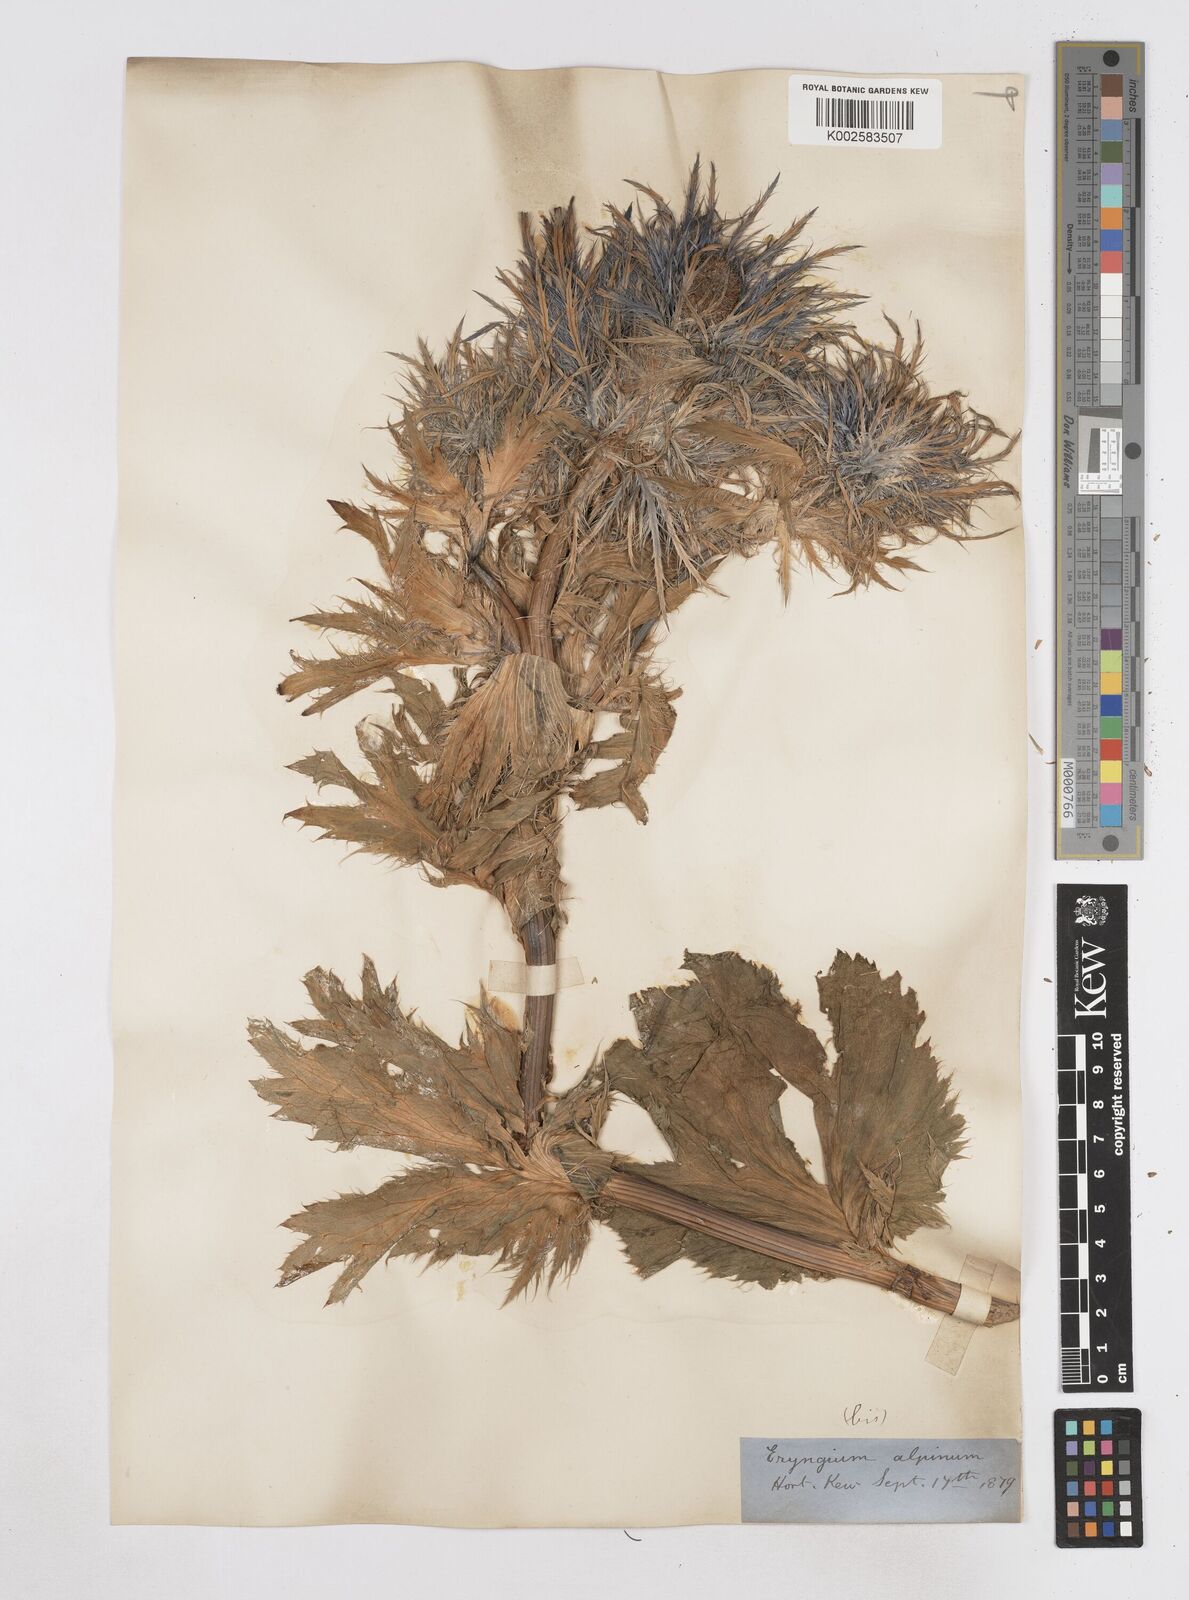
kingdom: Plantae
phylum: Tracheophyta
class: Magnoliopsida
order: Apiales
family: Apiaceae
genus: Eryngium
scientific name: Eryngium alpinum
